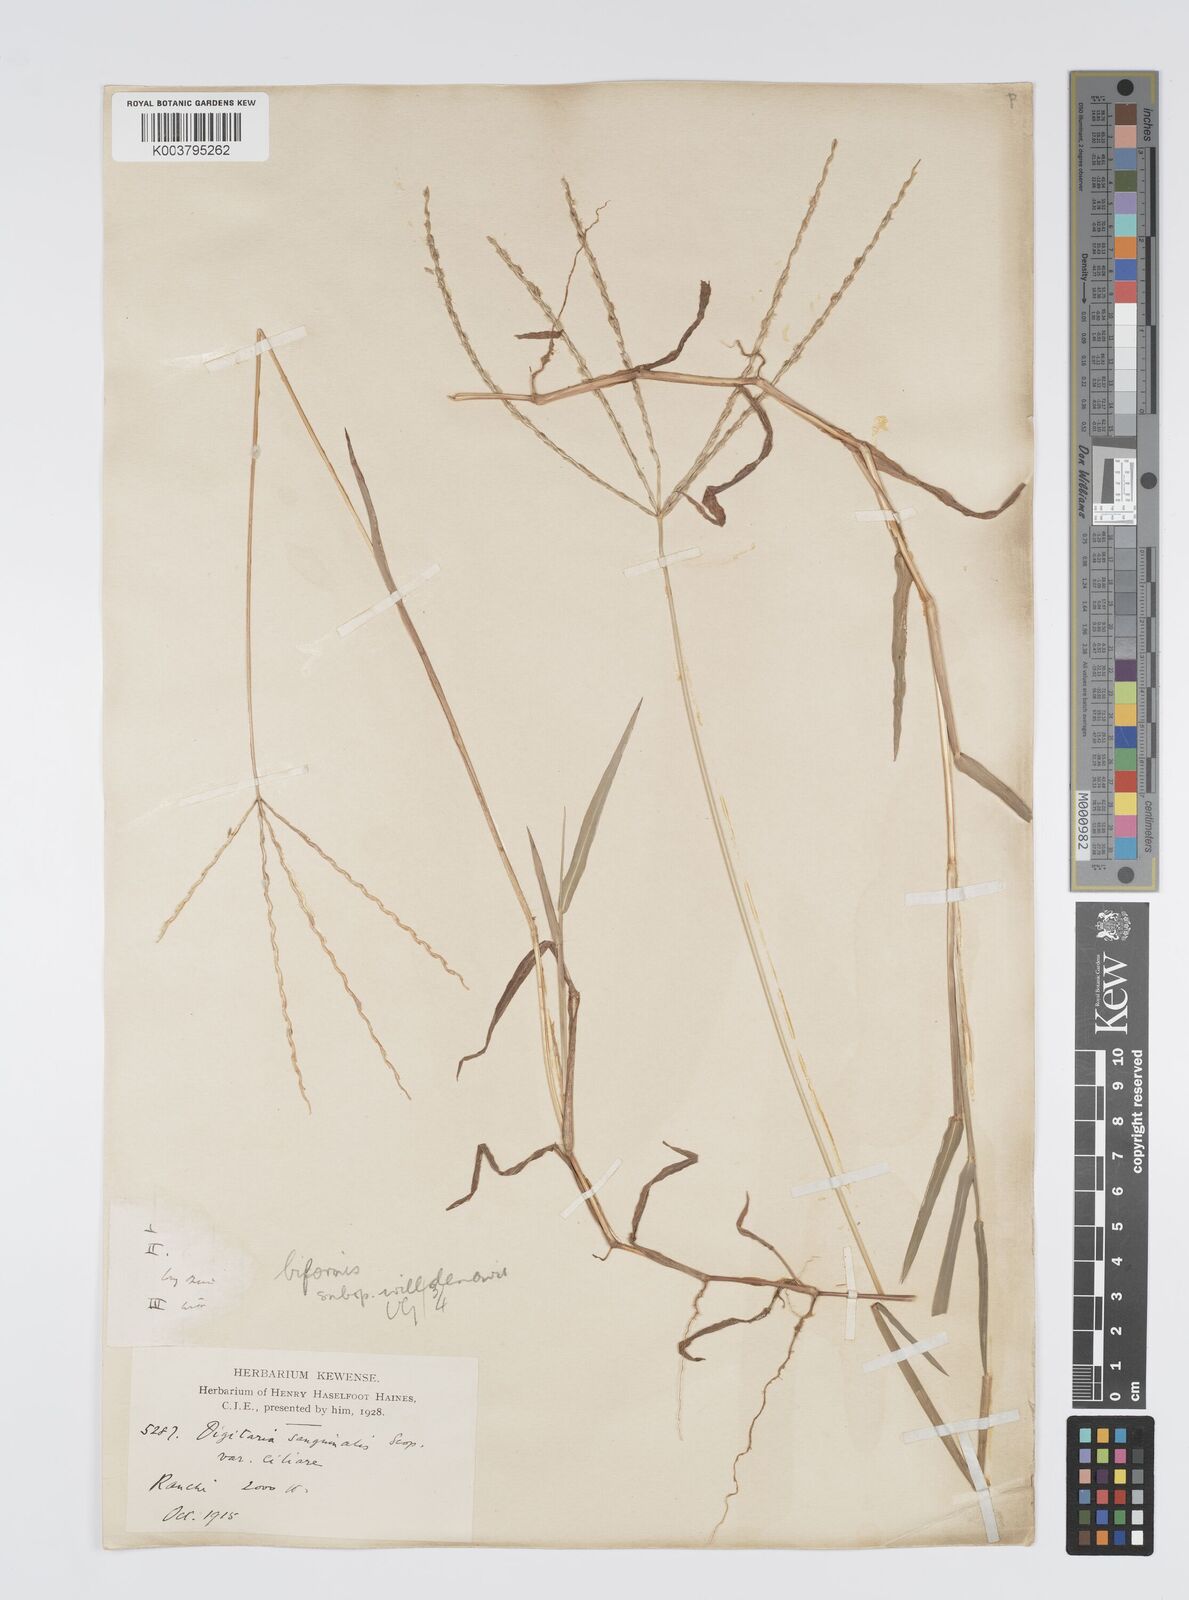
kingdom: Plantae
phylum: Tracheophyta
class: Liliopsida
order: Poales
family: Poaceae
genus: Digitaria
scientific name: Digitaria ciliaris
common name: Tropical finger-grass
